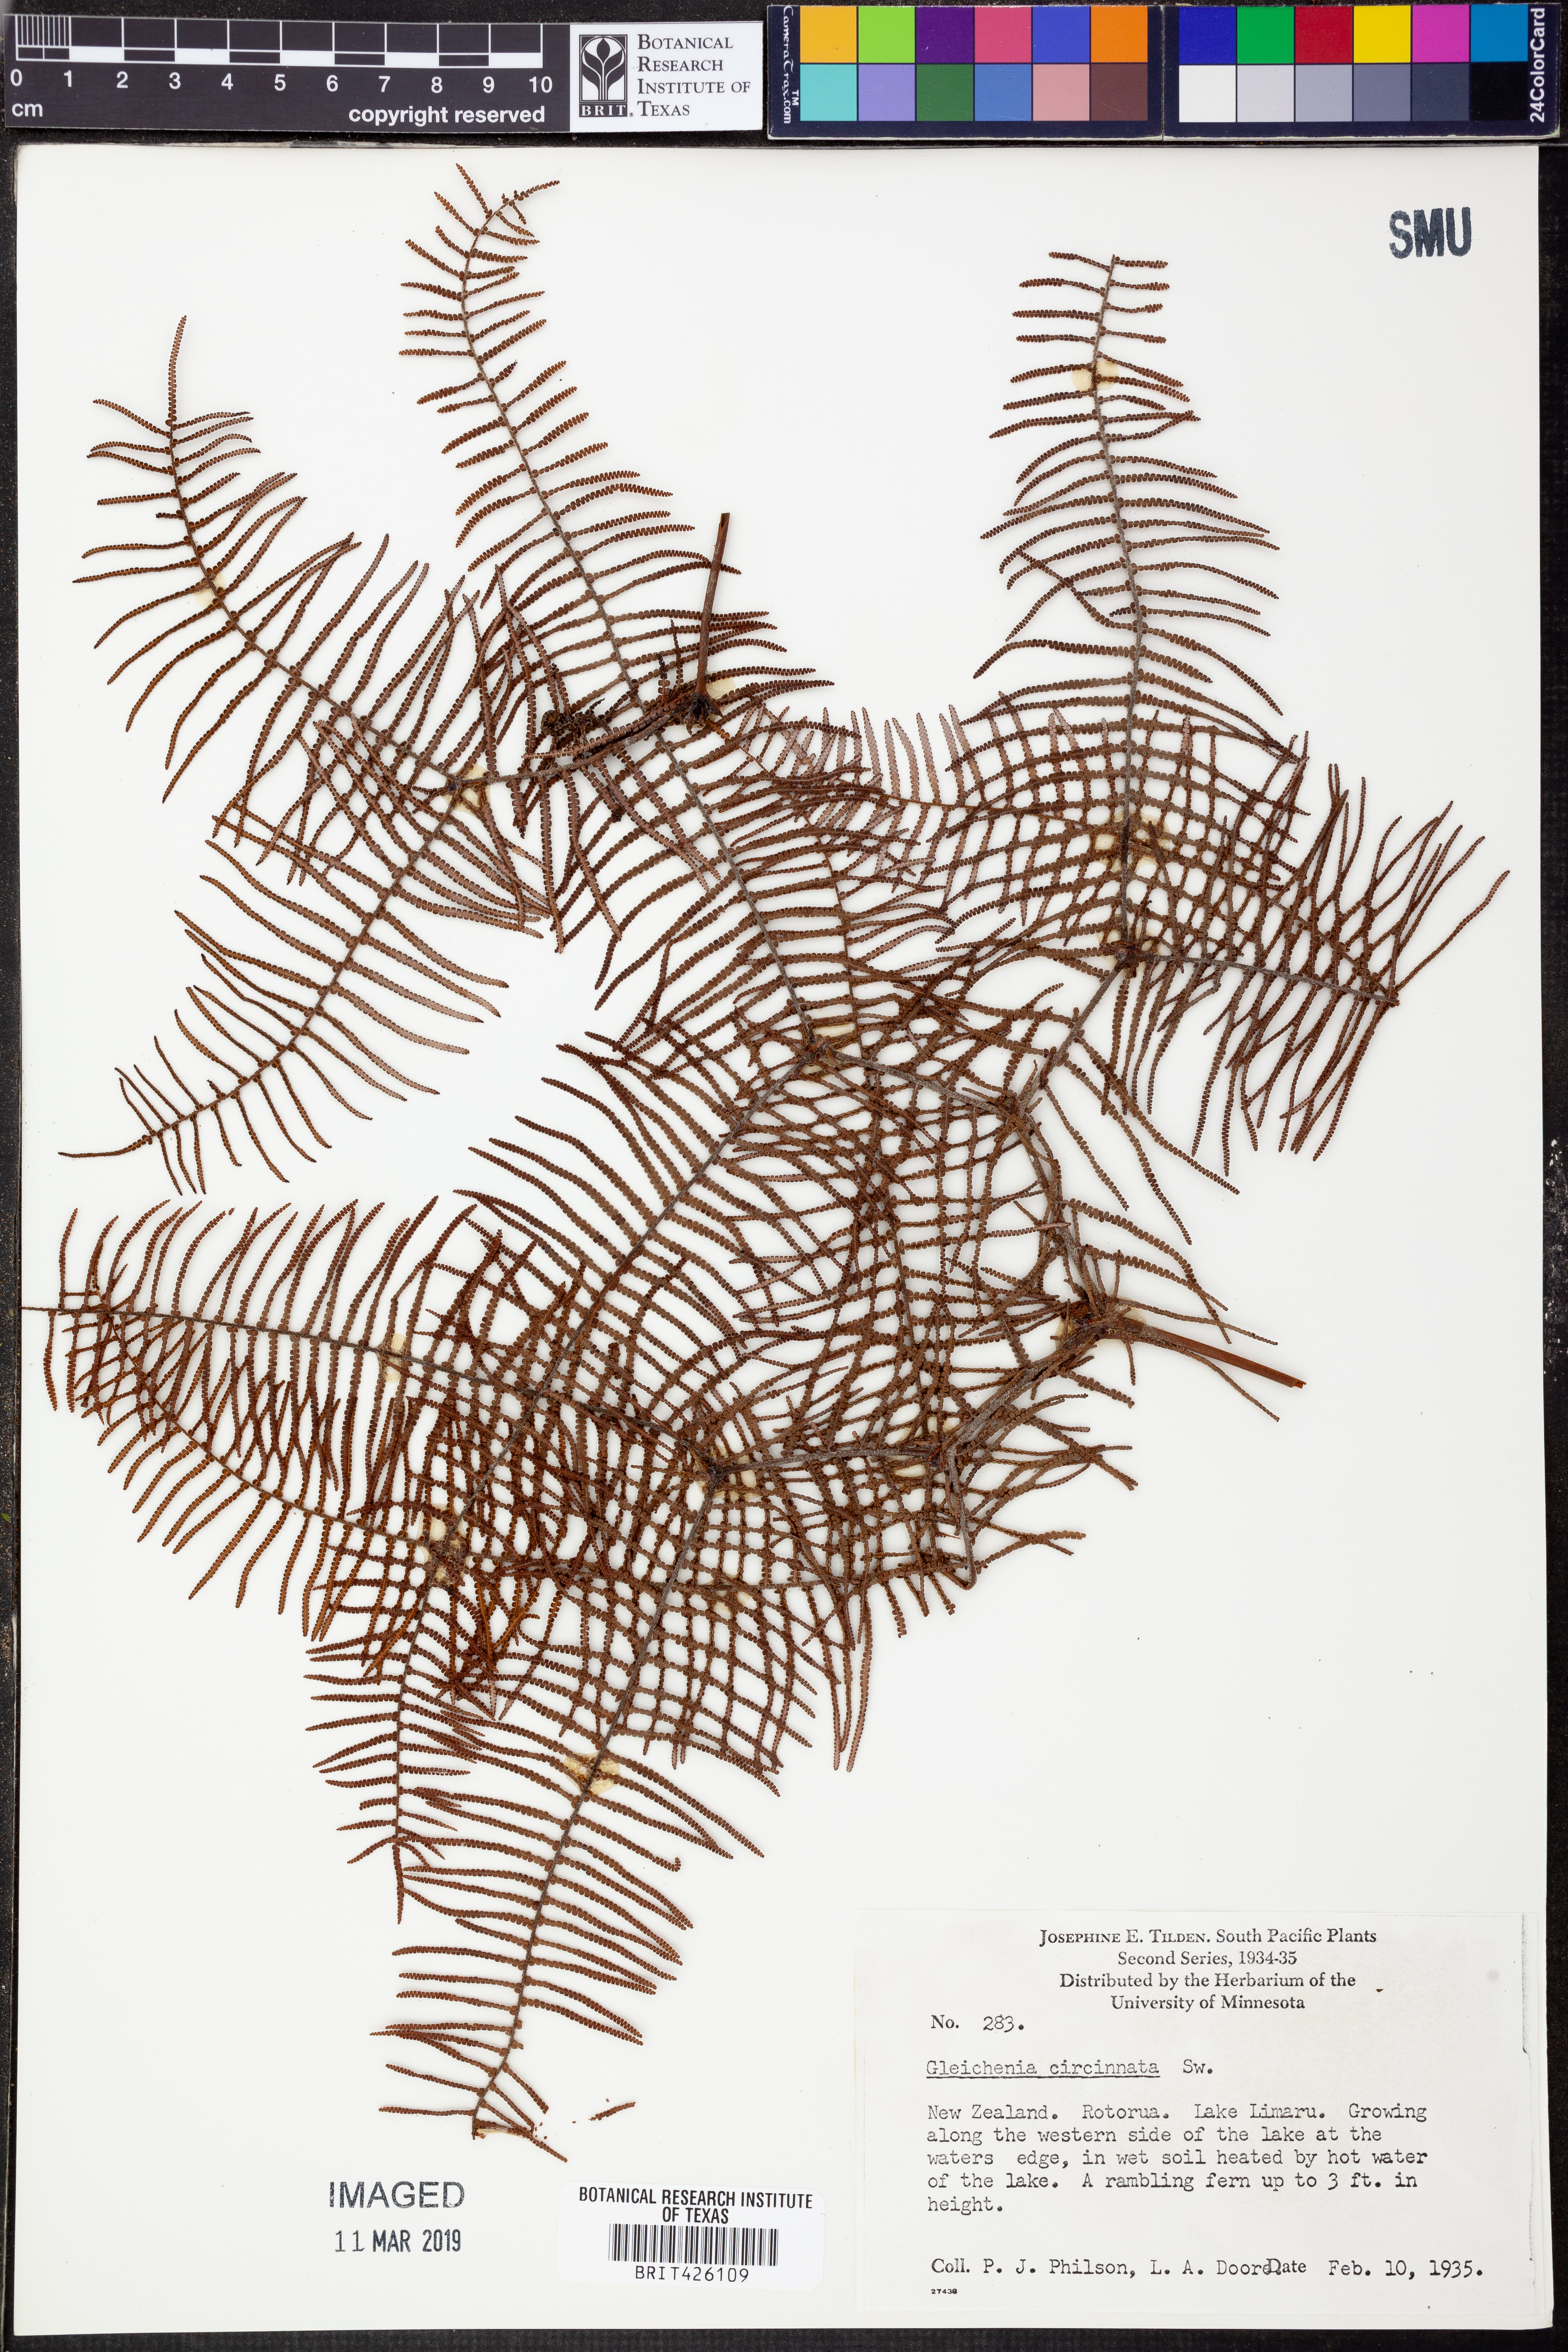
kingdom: Plantae
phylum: Tracheophyta
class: Polypodiopsida
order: Gleicheniales
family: Gleicheniaceae
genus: Gleichenia
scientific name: Gleichenia circinnata
